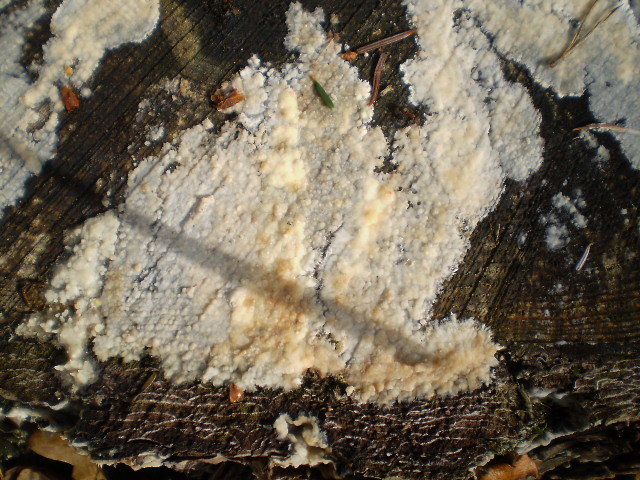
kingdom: Fungi
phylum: Basidiomycota
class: Agaricomycetes
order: Polyporales
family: Phanerochaetaceae
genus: Phlebiopsis
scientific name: Phlebiopsis gigantea
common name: kæmpebarksvamp
